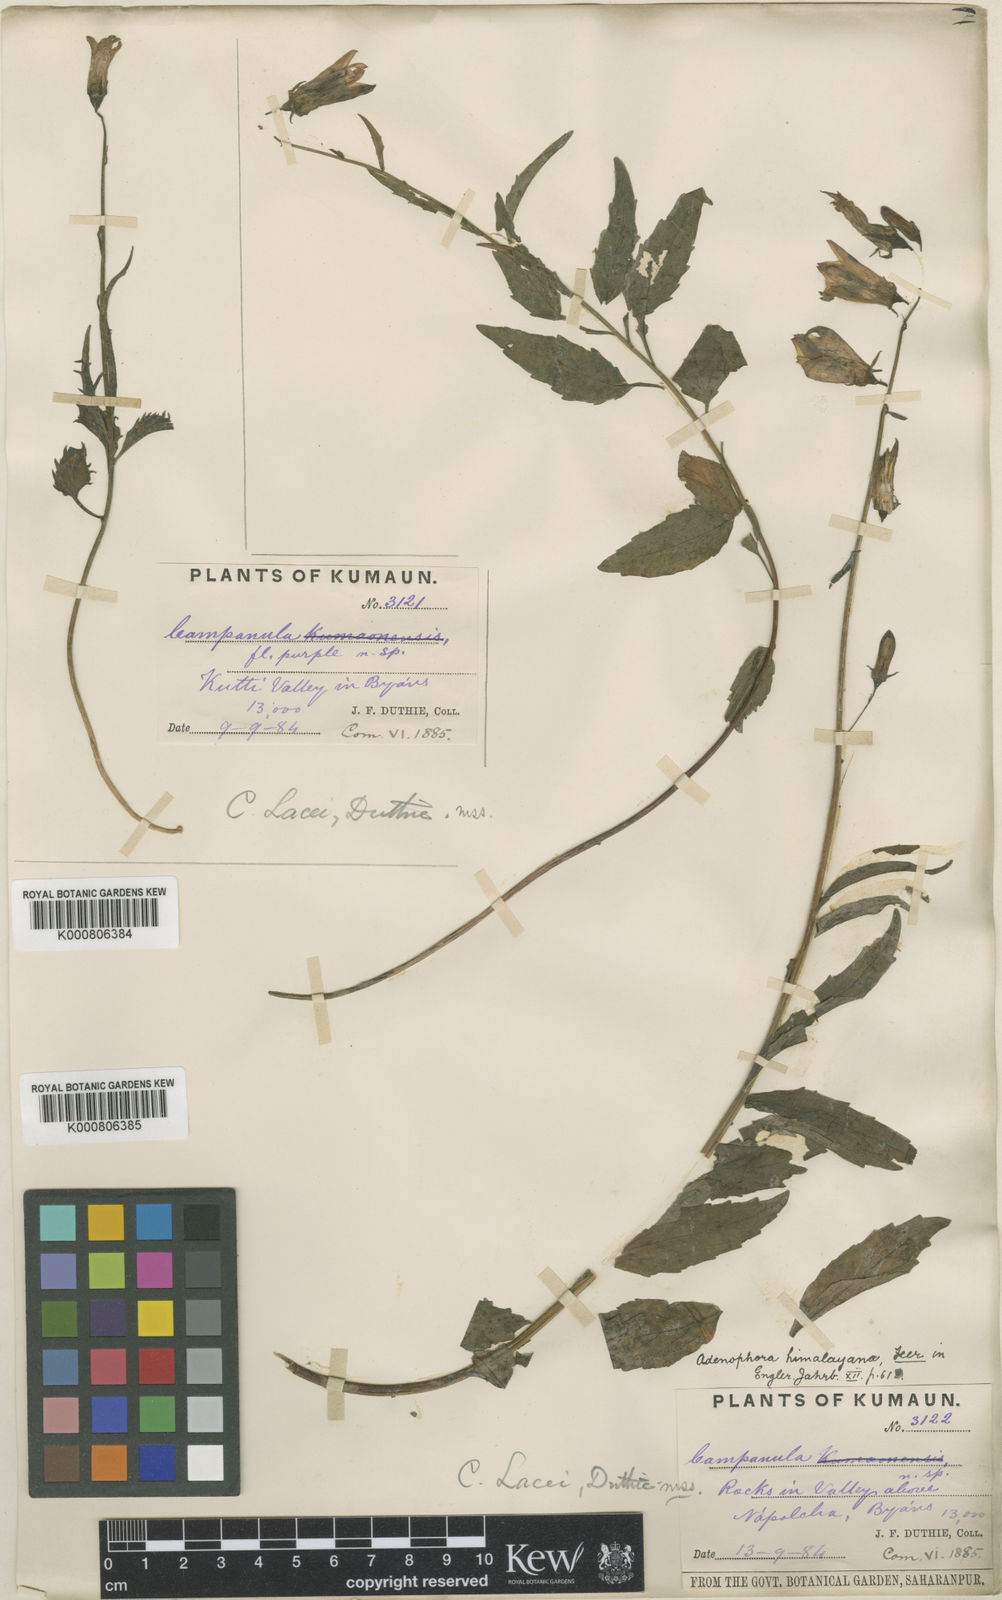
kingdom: Plantae
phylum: Tracheophyta
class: Magnoliopsida
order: Asterales
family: Campanulaceae
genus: Adenophora
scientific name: Adenophora himalayana
